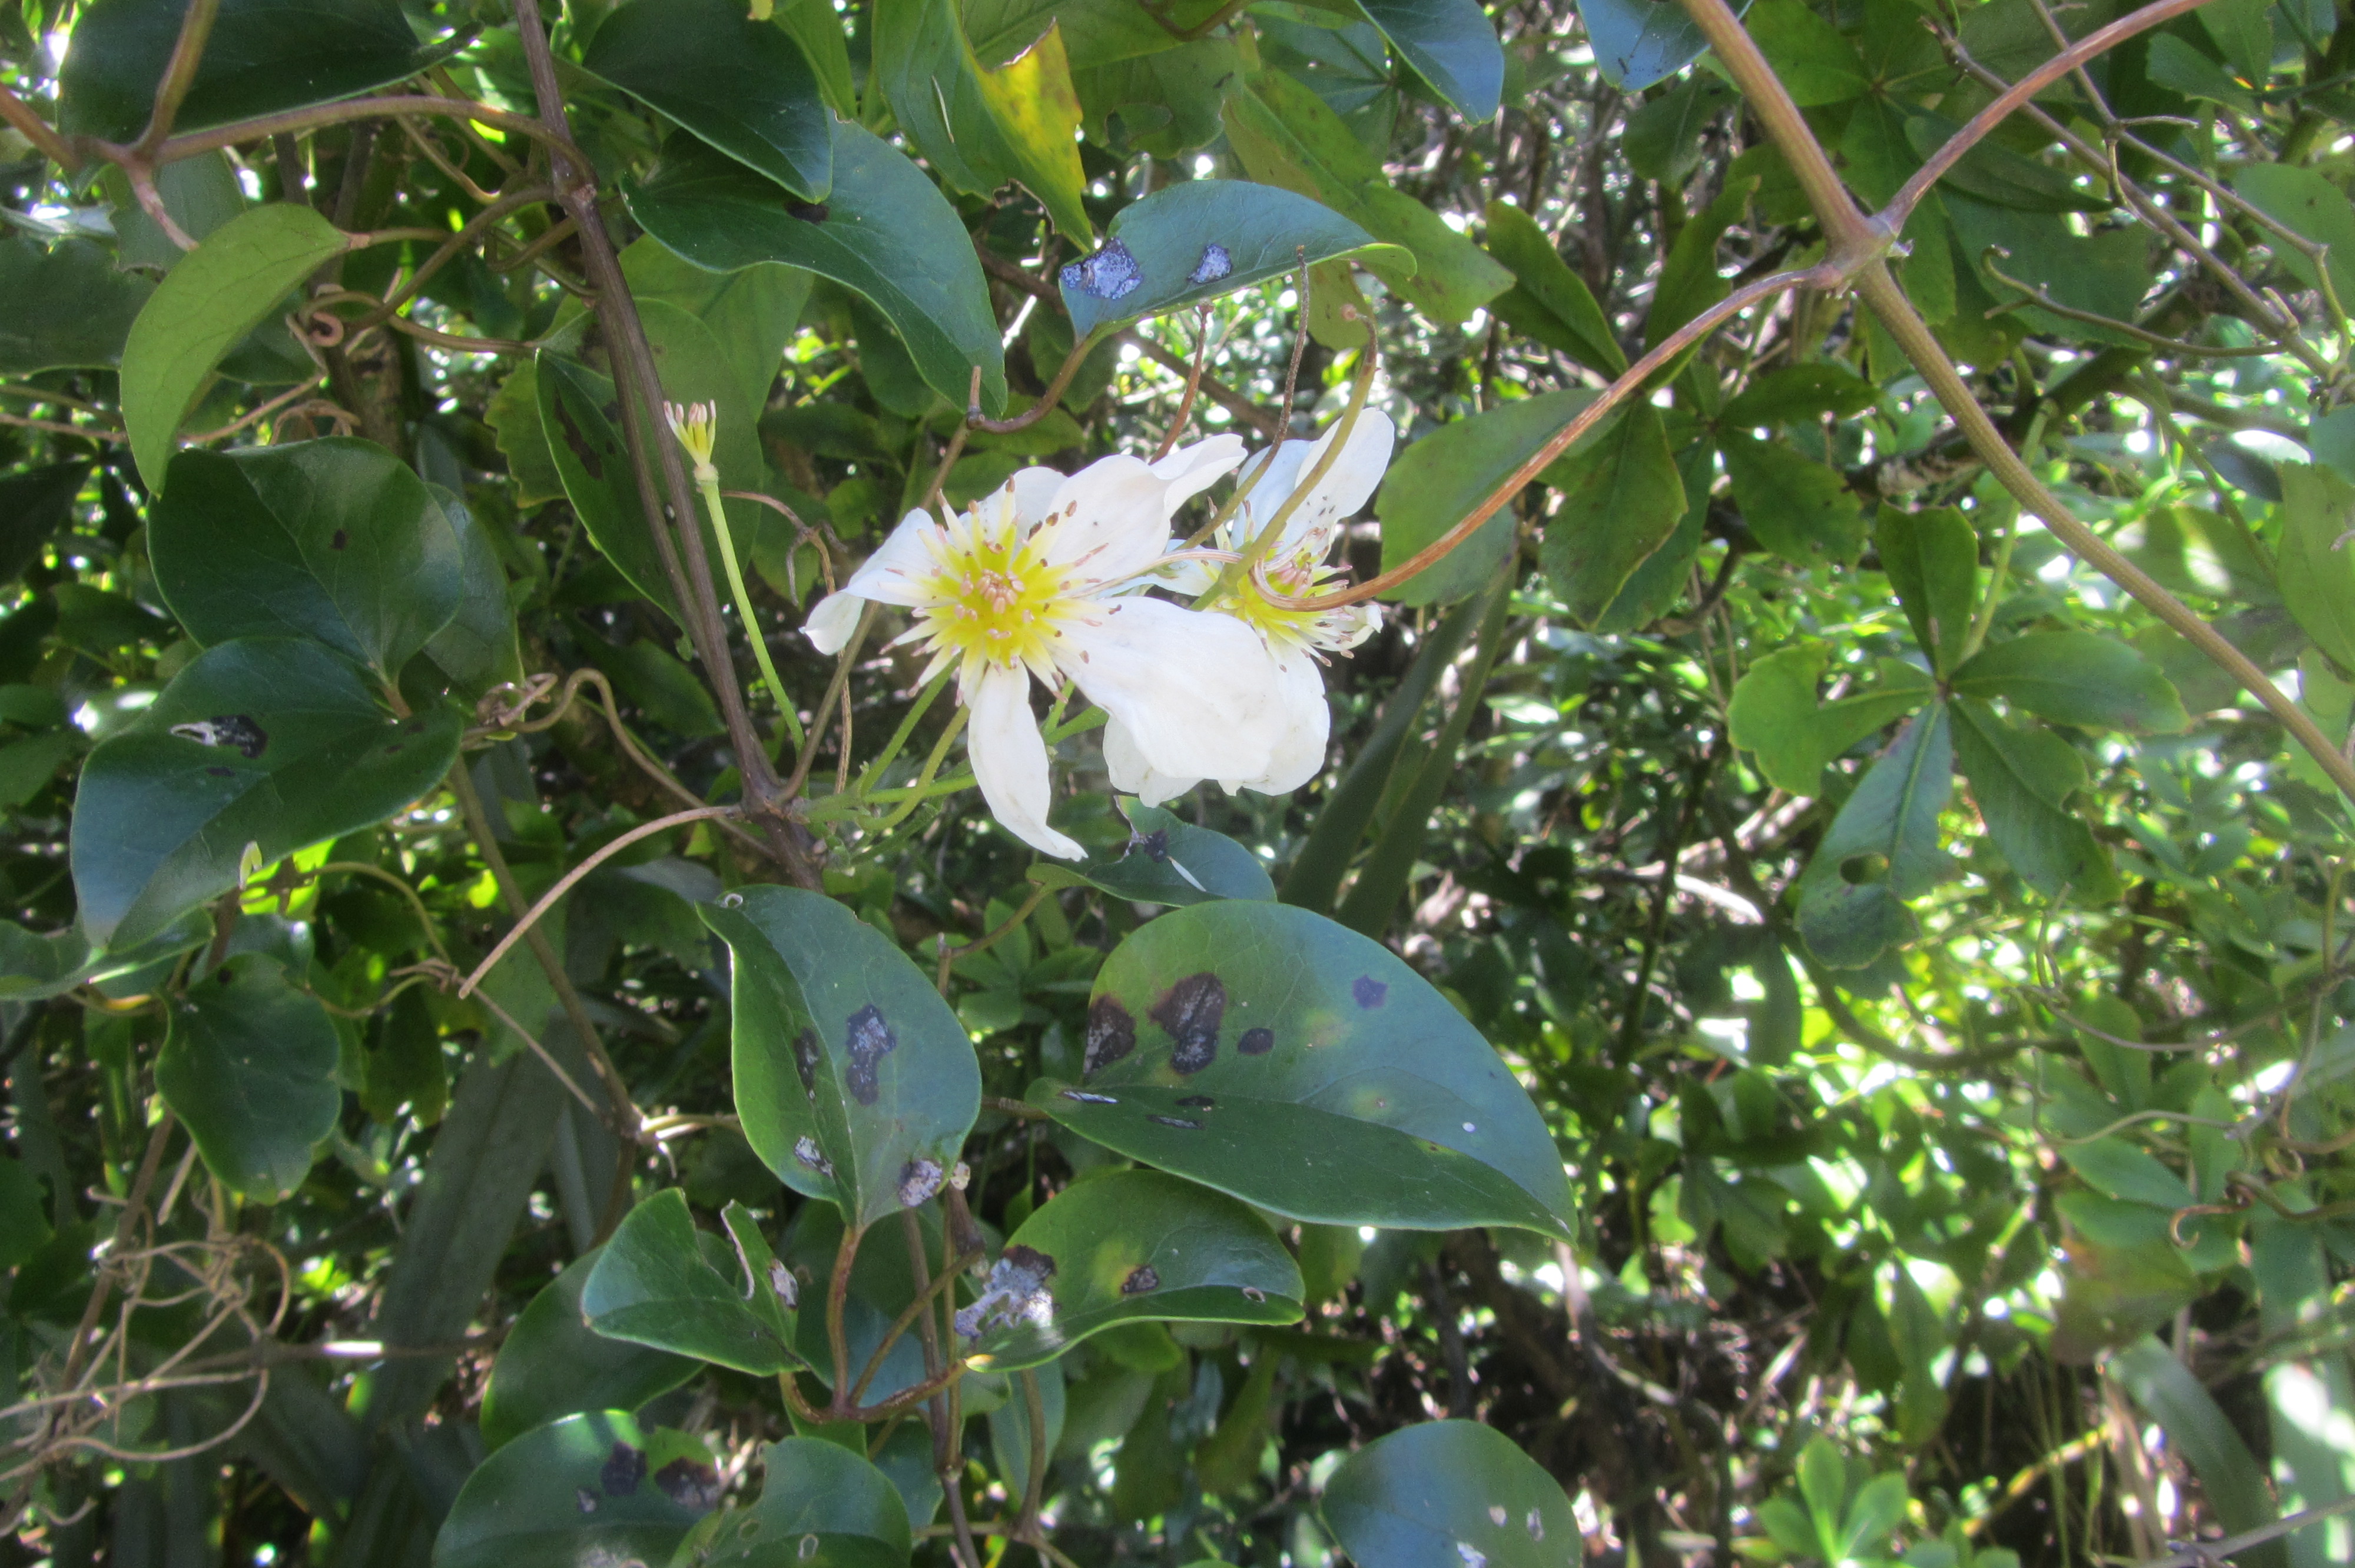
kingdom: Plantae
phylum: Tracheophyta
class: Magnoliopsida
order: Ranunculales
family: Ranunculaceae
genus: Clematis
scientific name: Clematis paniculata
